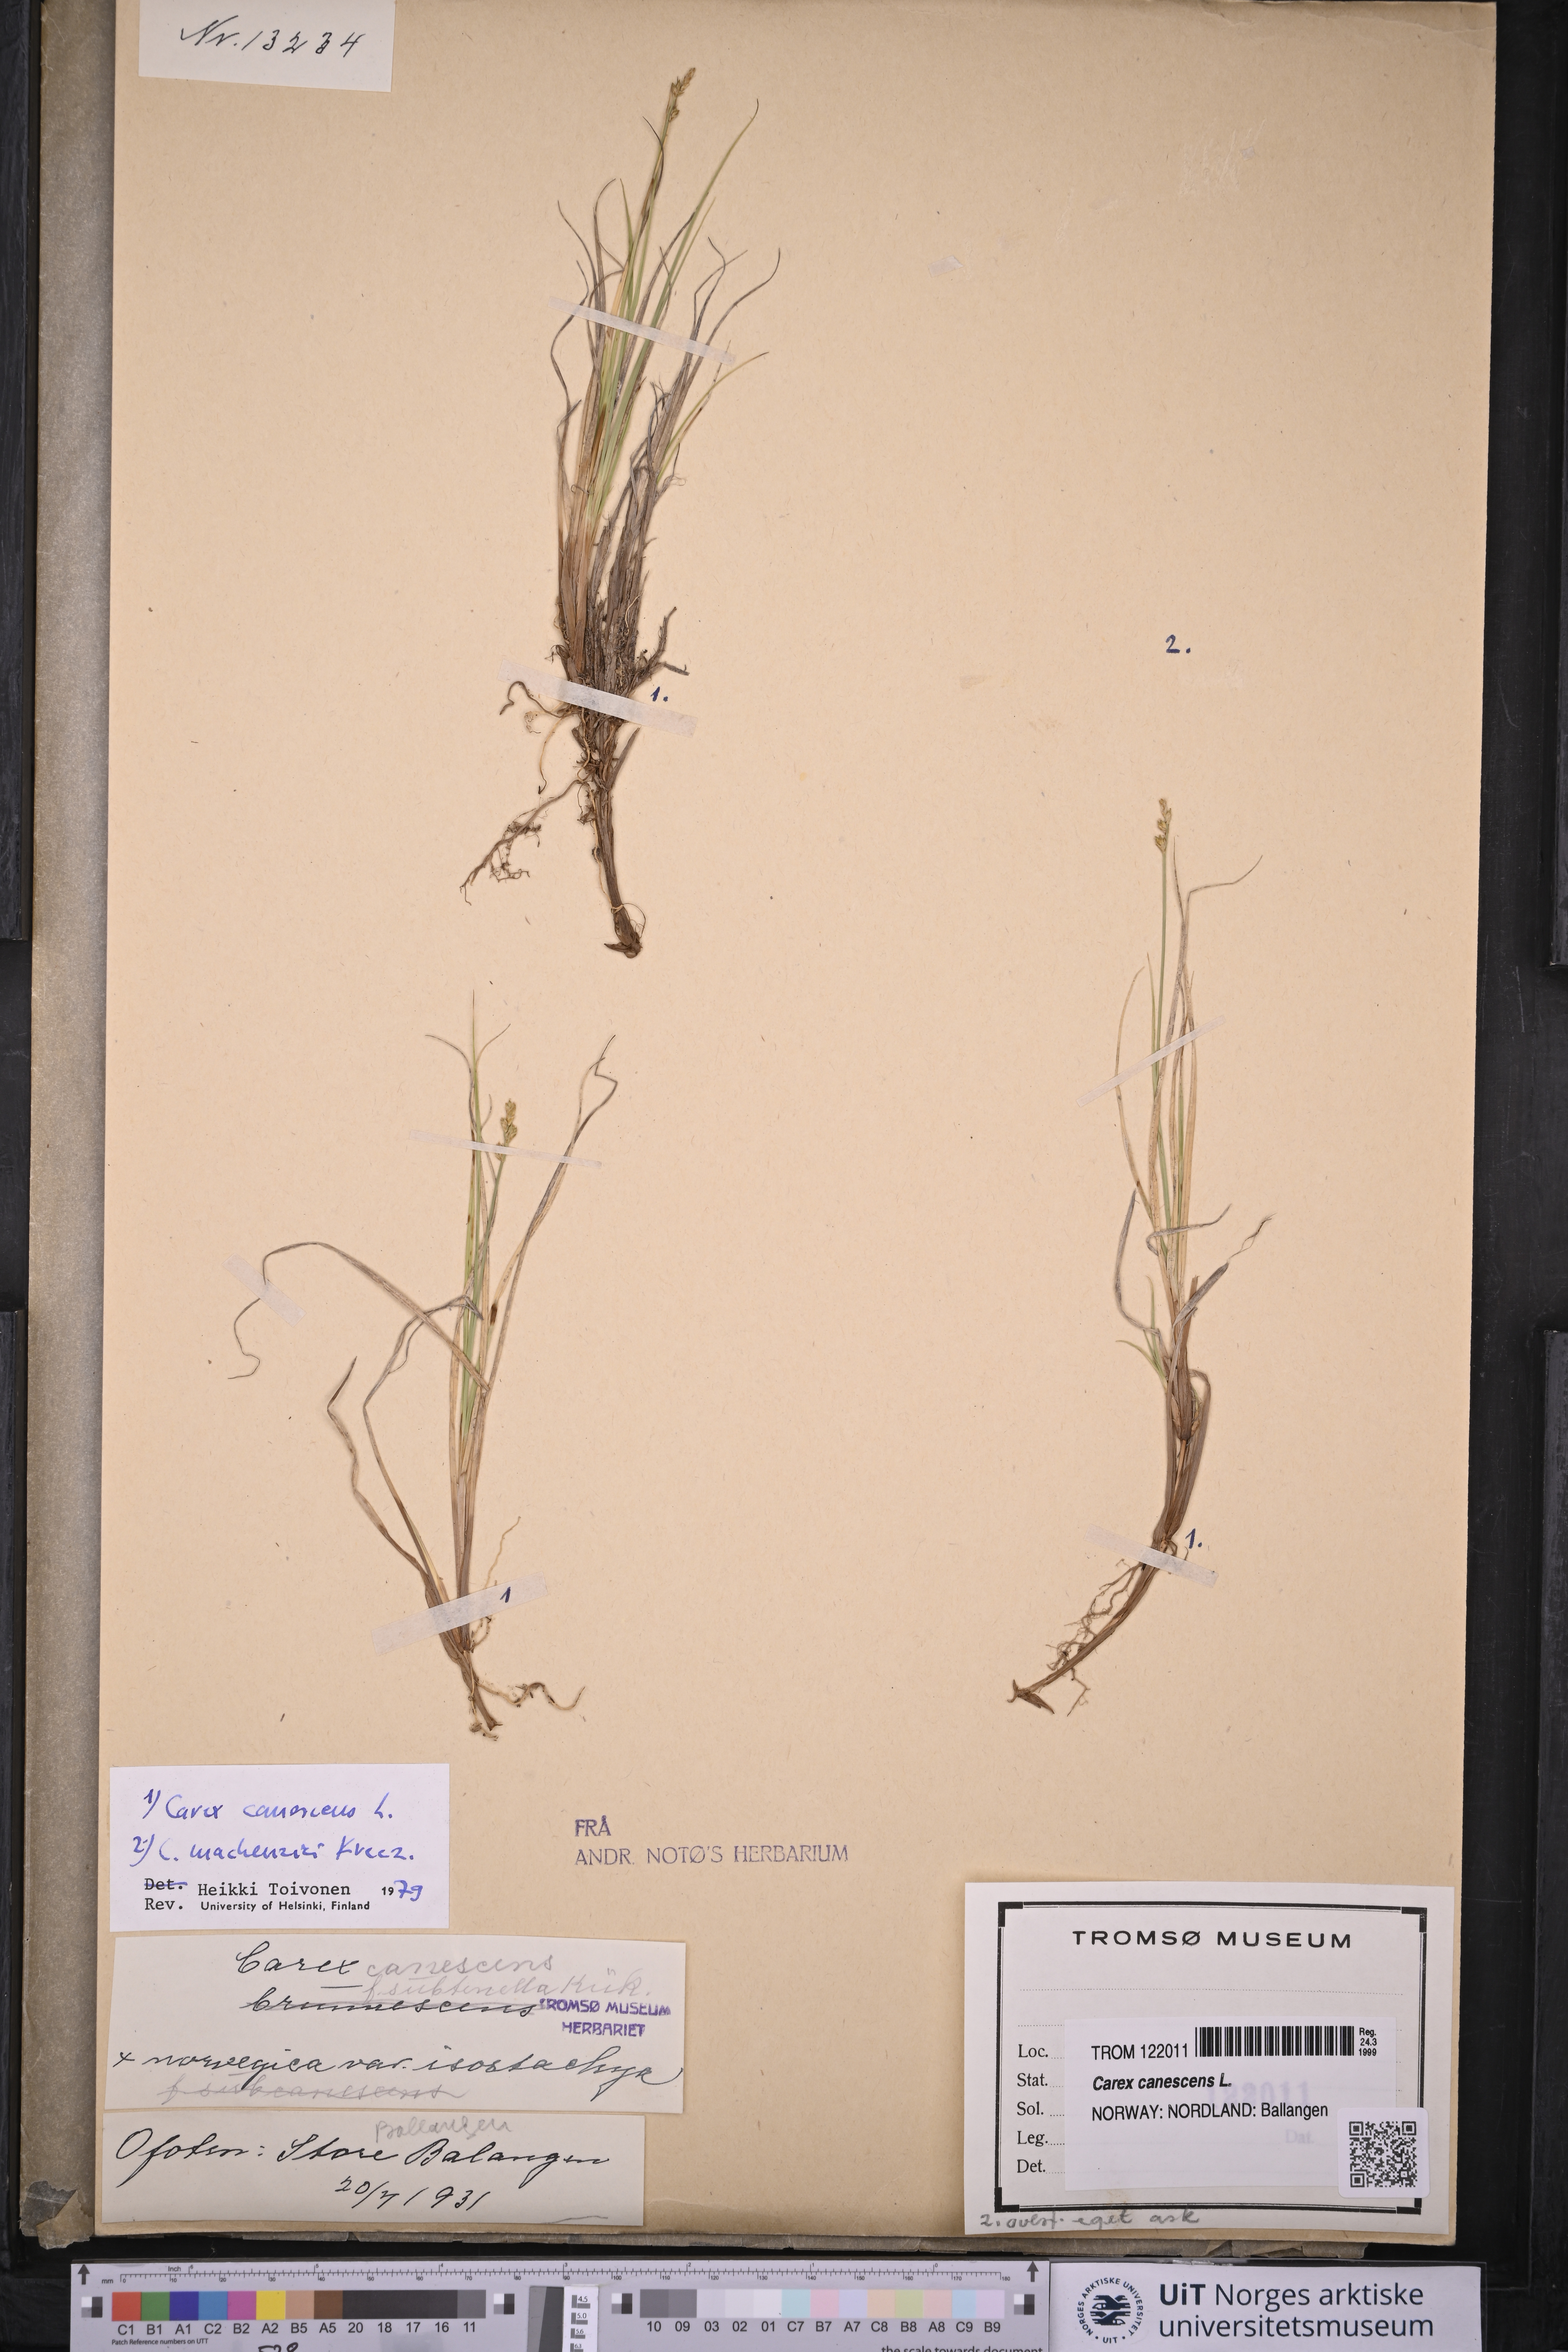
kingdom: Plantae
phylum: Tracheophyta
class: Liliopsida
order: Poales
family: Cyperaceae
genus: Carex
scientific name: Carex canescens
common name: White sedge
